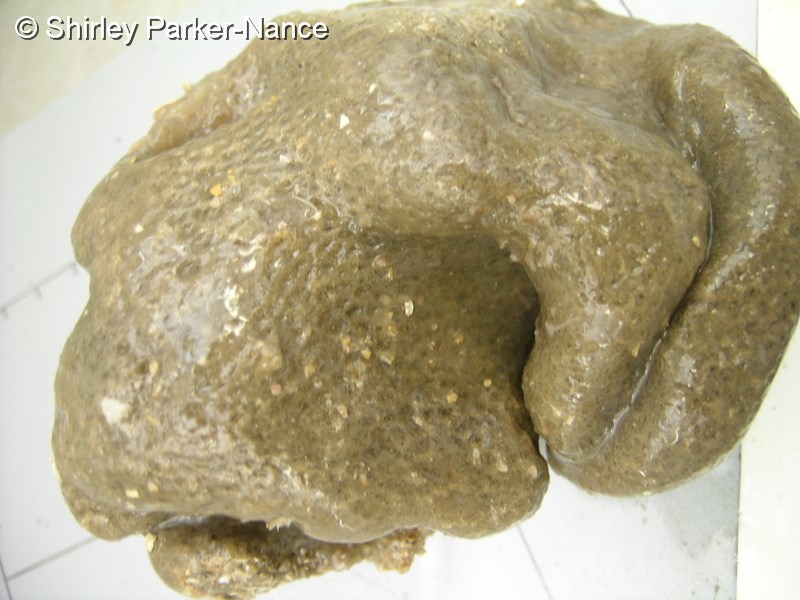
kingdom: Animalia
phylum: Chordata
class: Ascidiacea
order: Aplousobranchia
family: Polyclinidae
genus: Polyclinum
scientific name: Polyclinum isipingense
